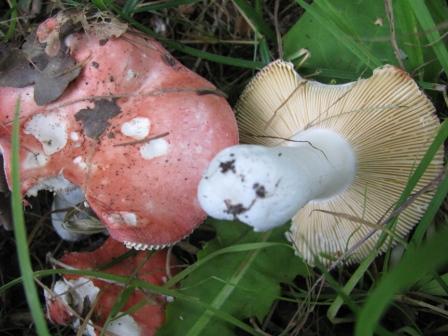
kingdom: Fungi
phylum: Basidiomycota
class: Agaricomycetes
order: Russulales
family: Russulaceae
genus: Russula
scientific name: Russula pseudointegra
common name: cinnoberrød skørhat
